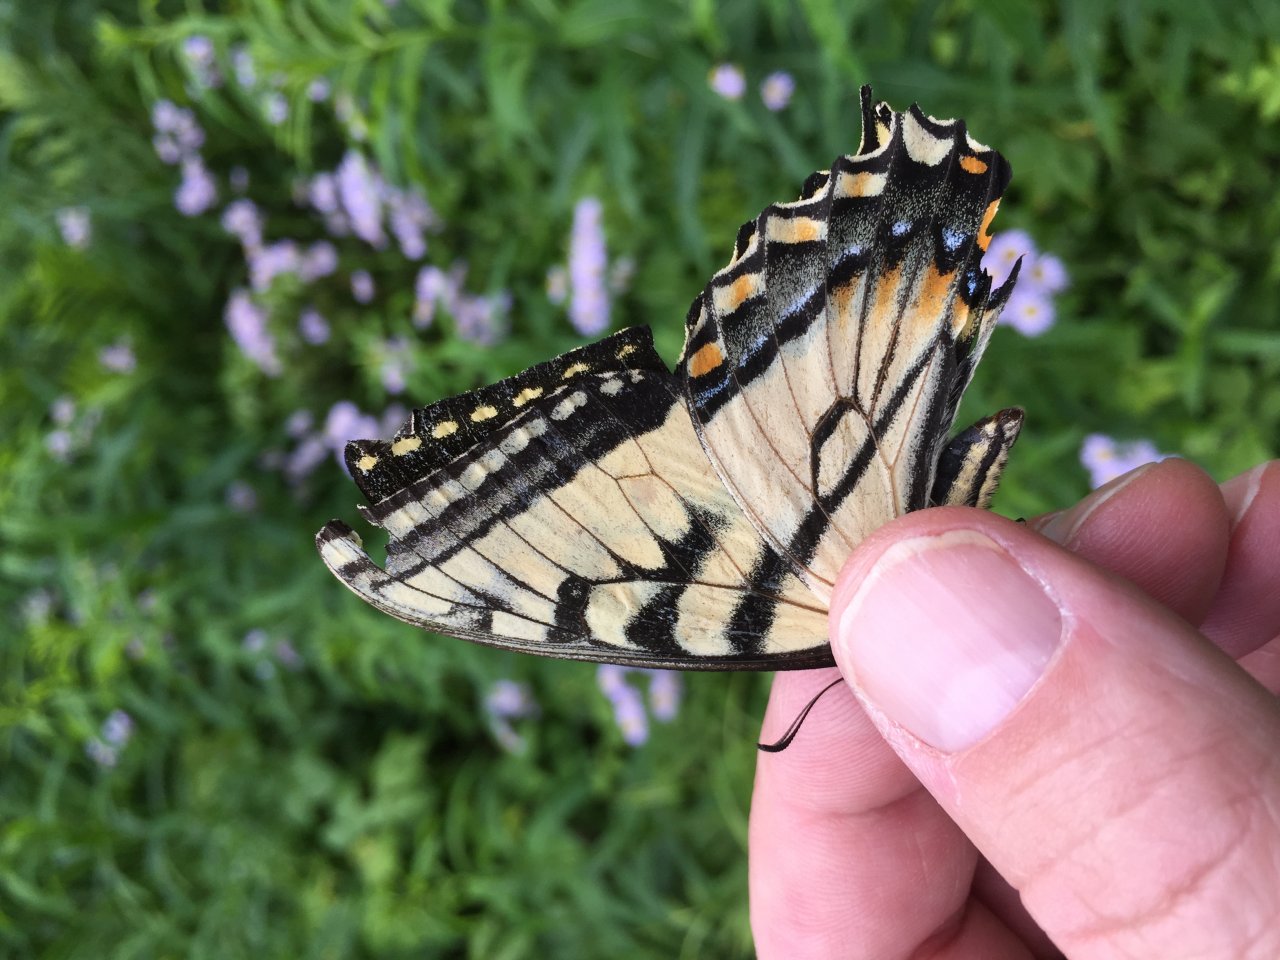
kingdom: Animalia
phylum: Arthropoda
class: Insecta
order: Lepidoptera
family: Papilionidae
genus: Pterourus
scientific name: Pterourus canadensis
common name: Canadian Tiger Swallowtail
